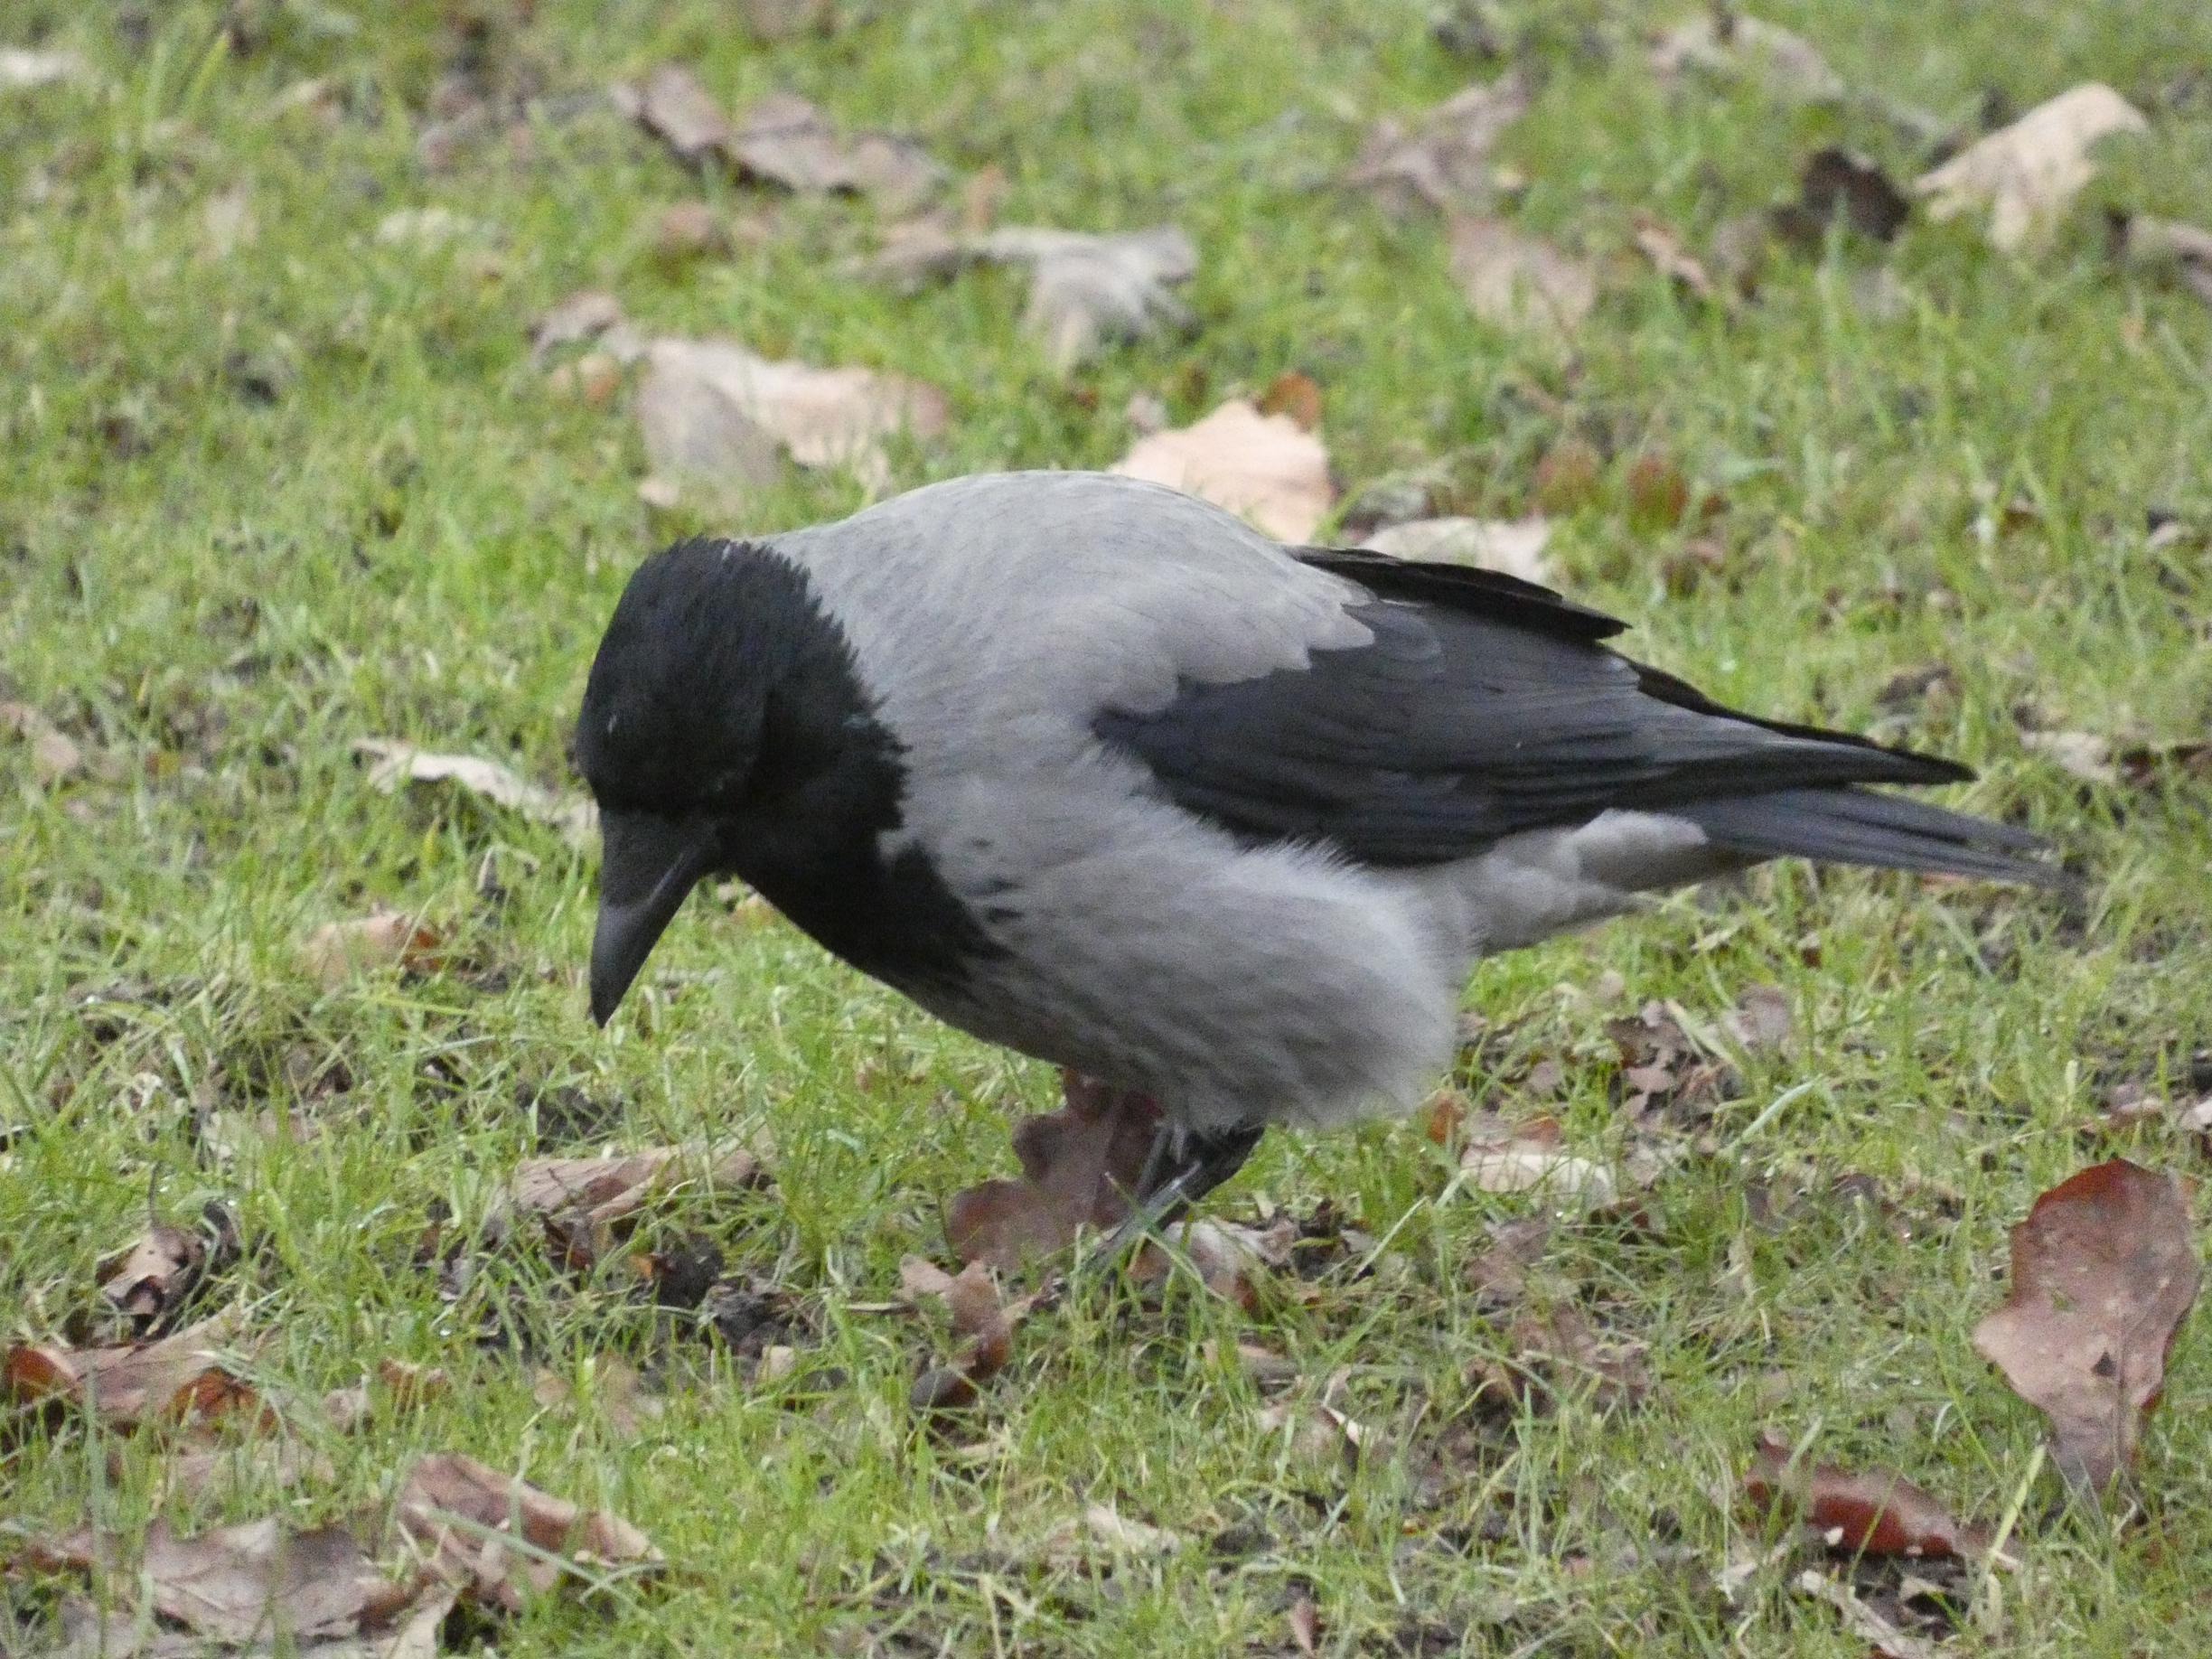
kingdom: Animalia
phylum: Chordata
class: Aves
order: Passeriformes
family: Corvidae
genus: Corvus
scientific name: Corvus cornix
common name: Gråkrage
